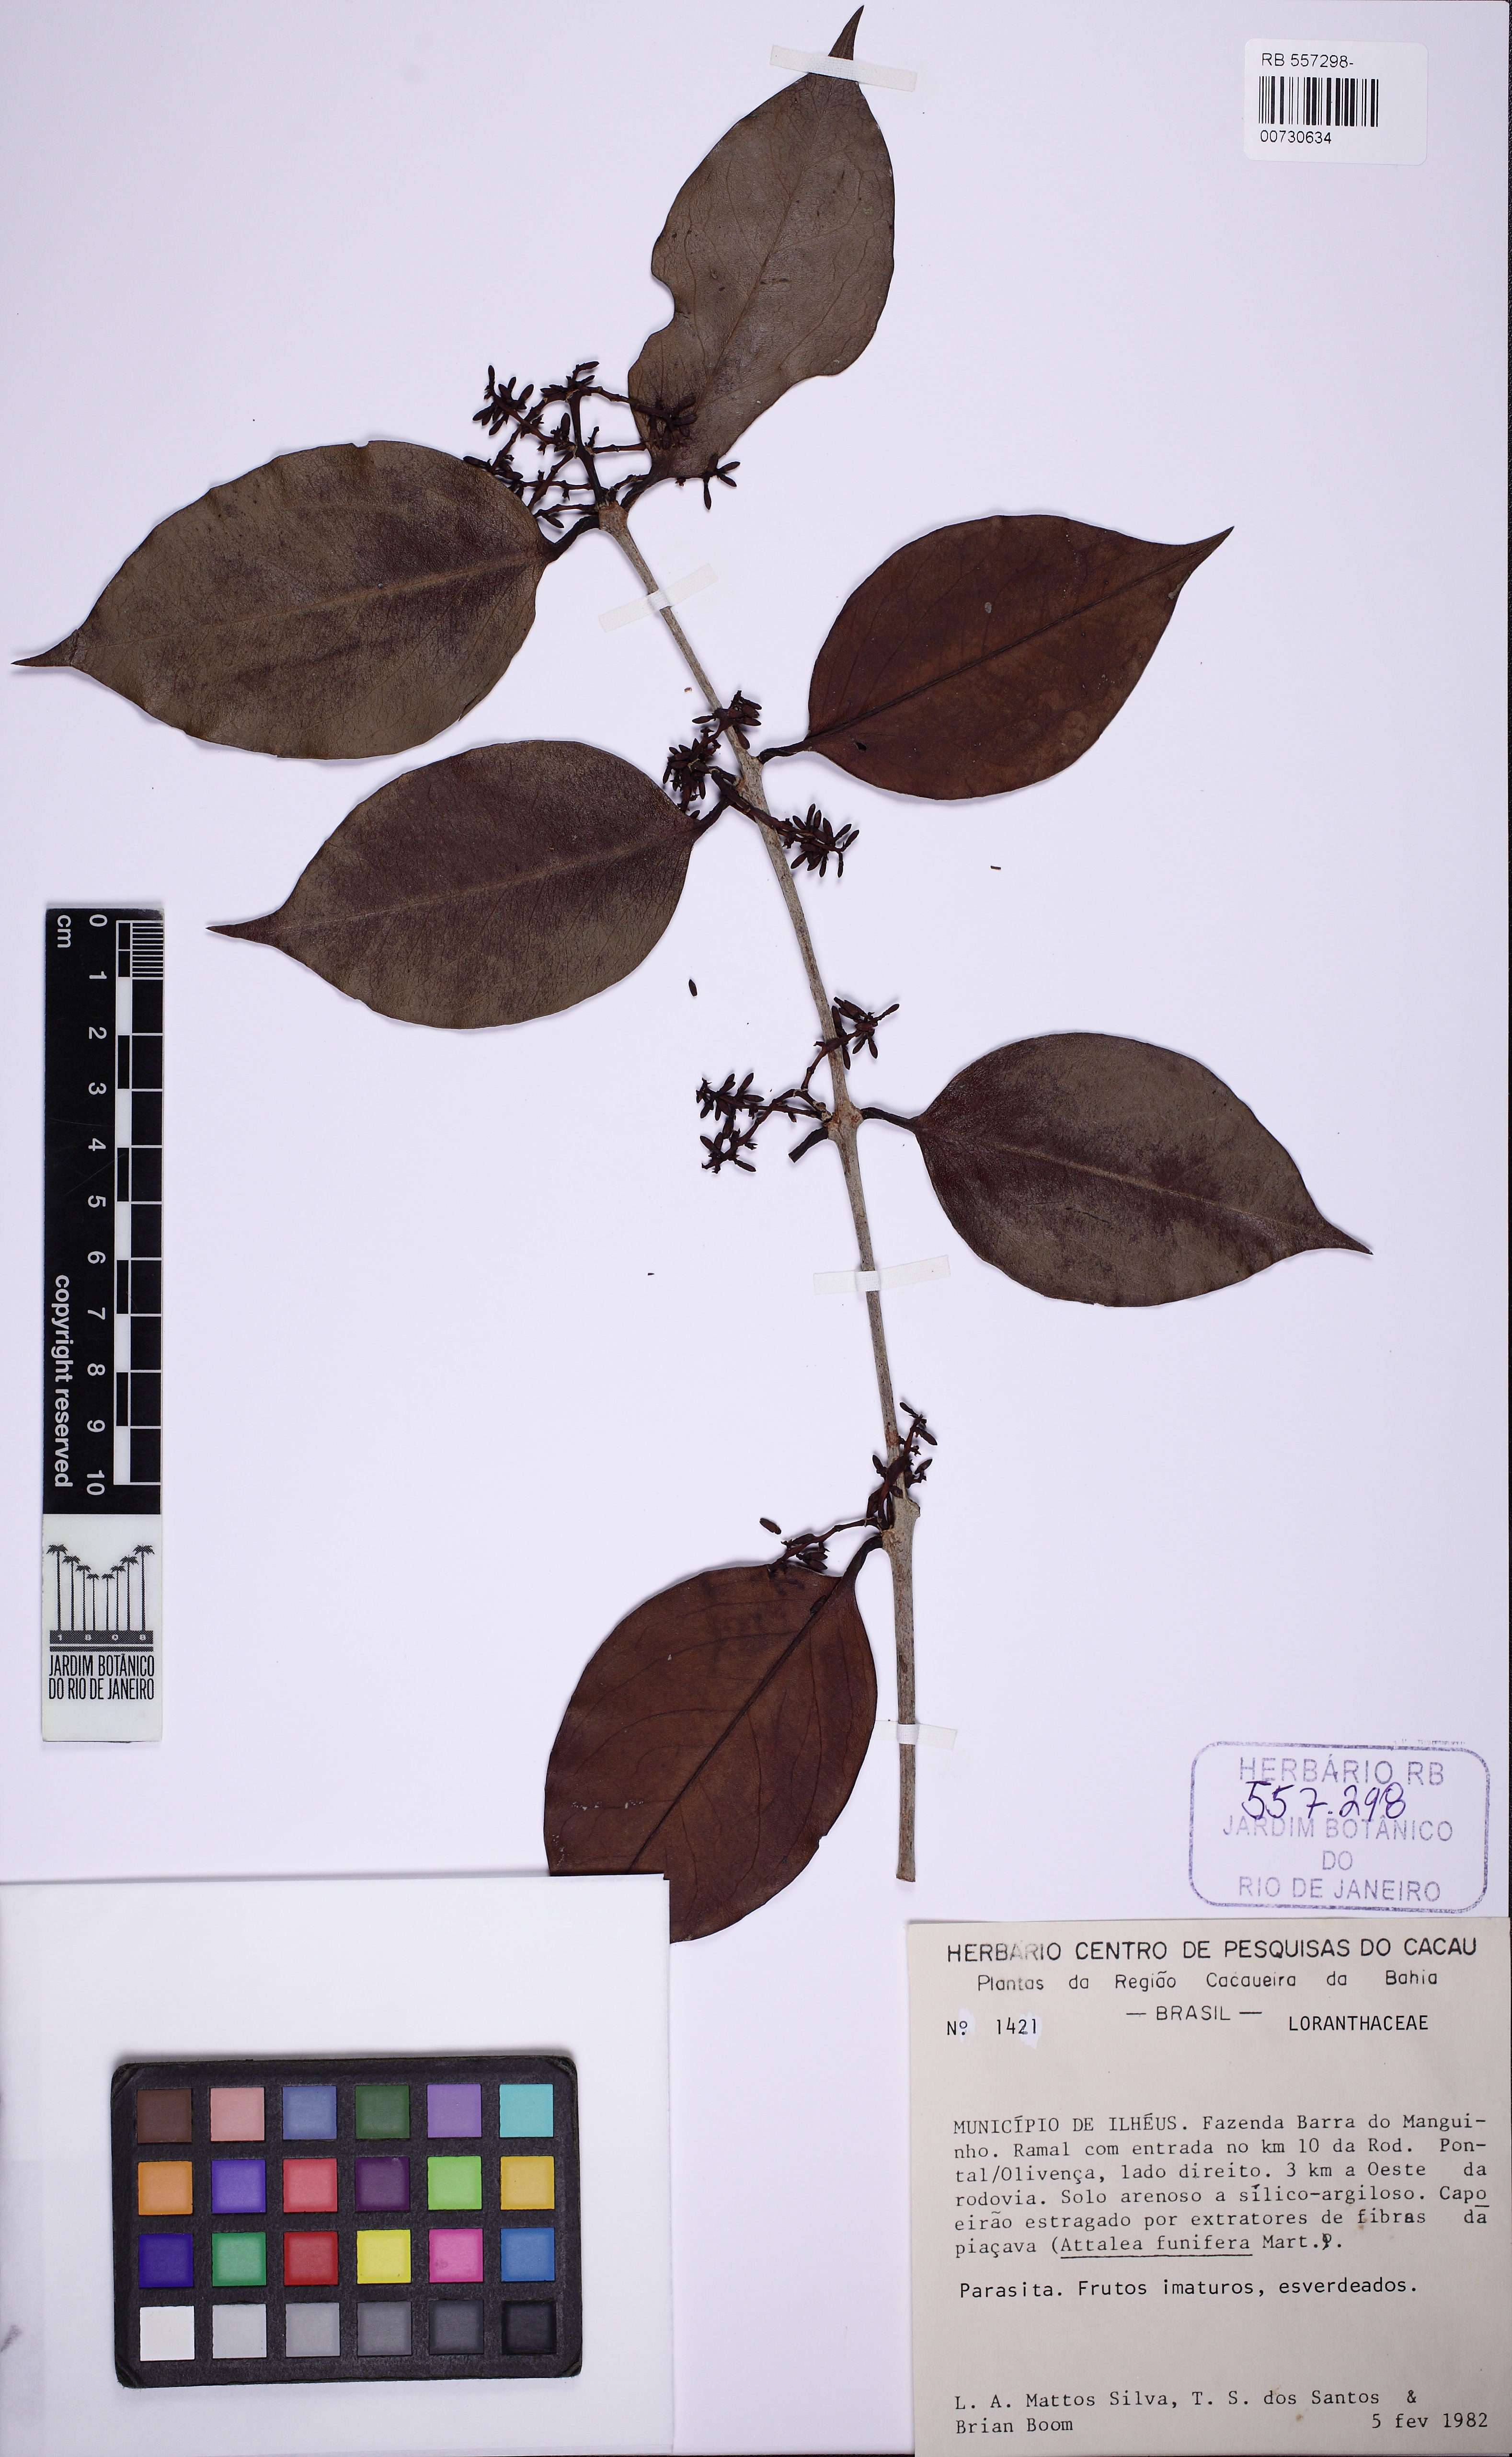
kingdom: Plantae
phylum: Tracheophyta
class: Magnoliopsida
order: Santalales
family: Loranthaceae
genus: Struthanthus
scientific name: Struthanthus
